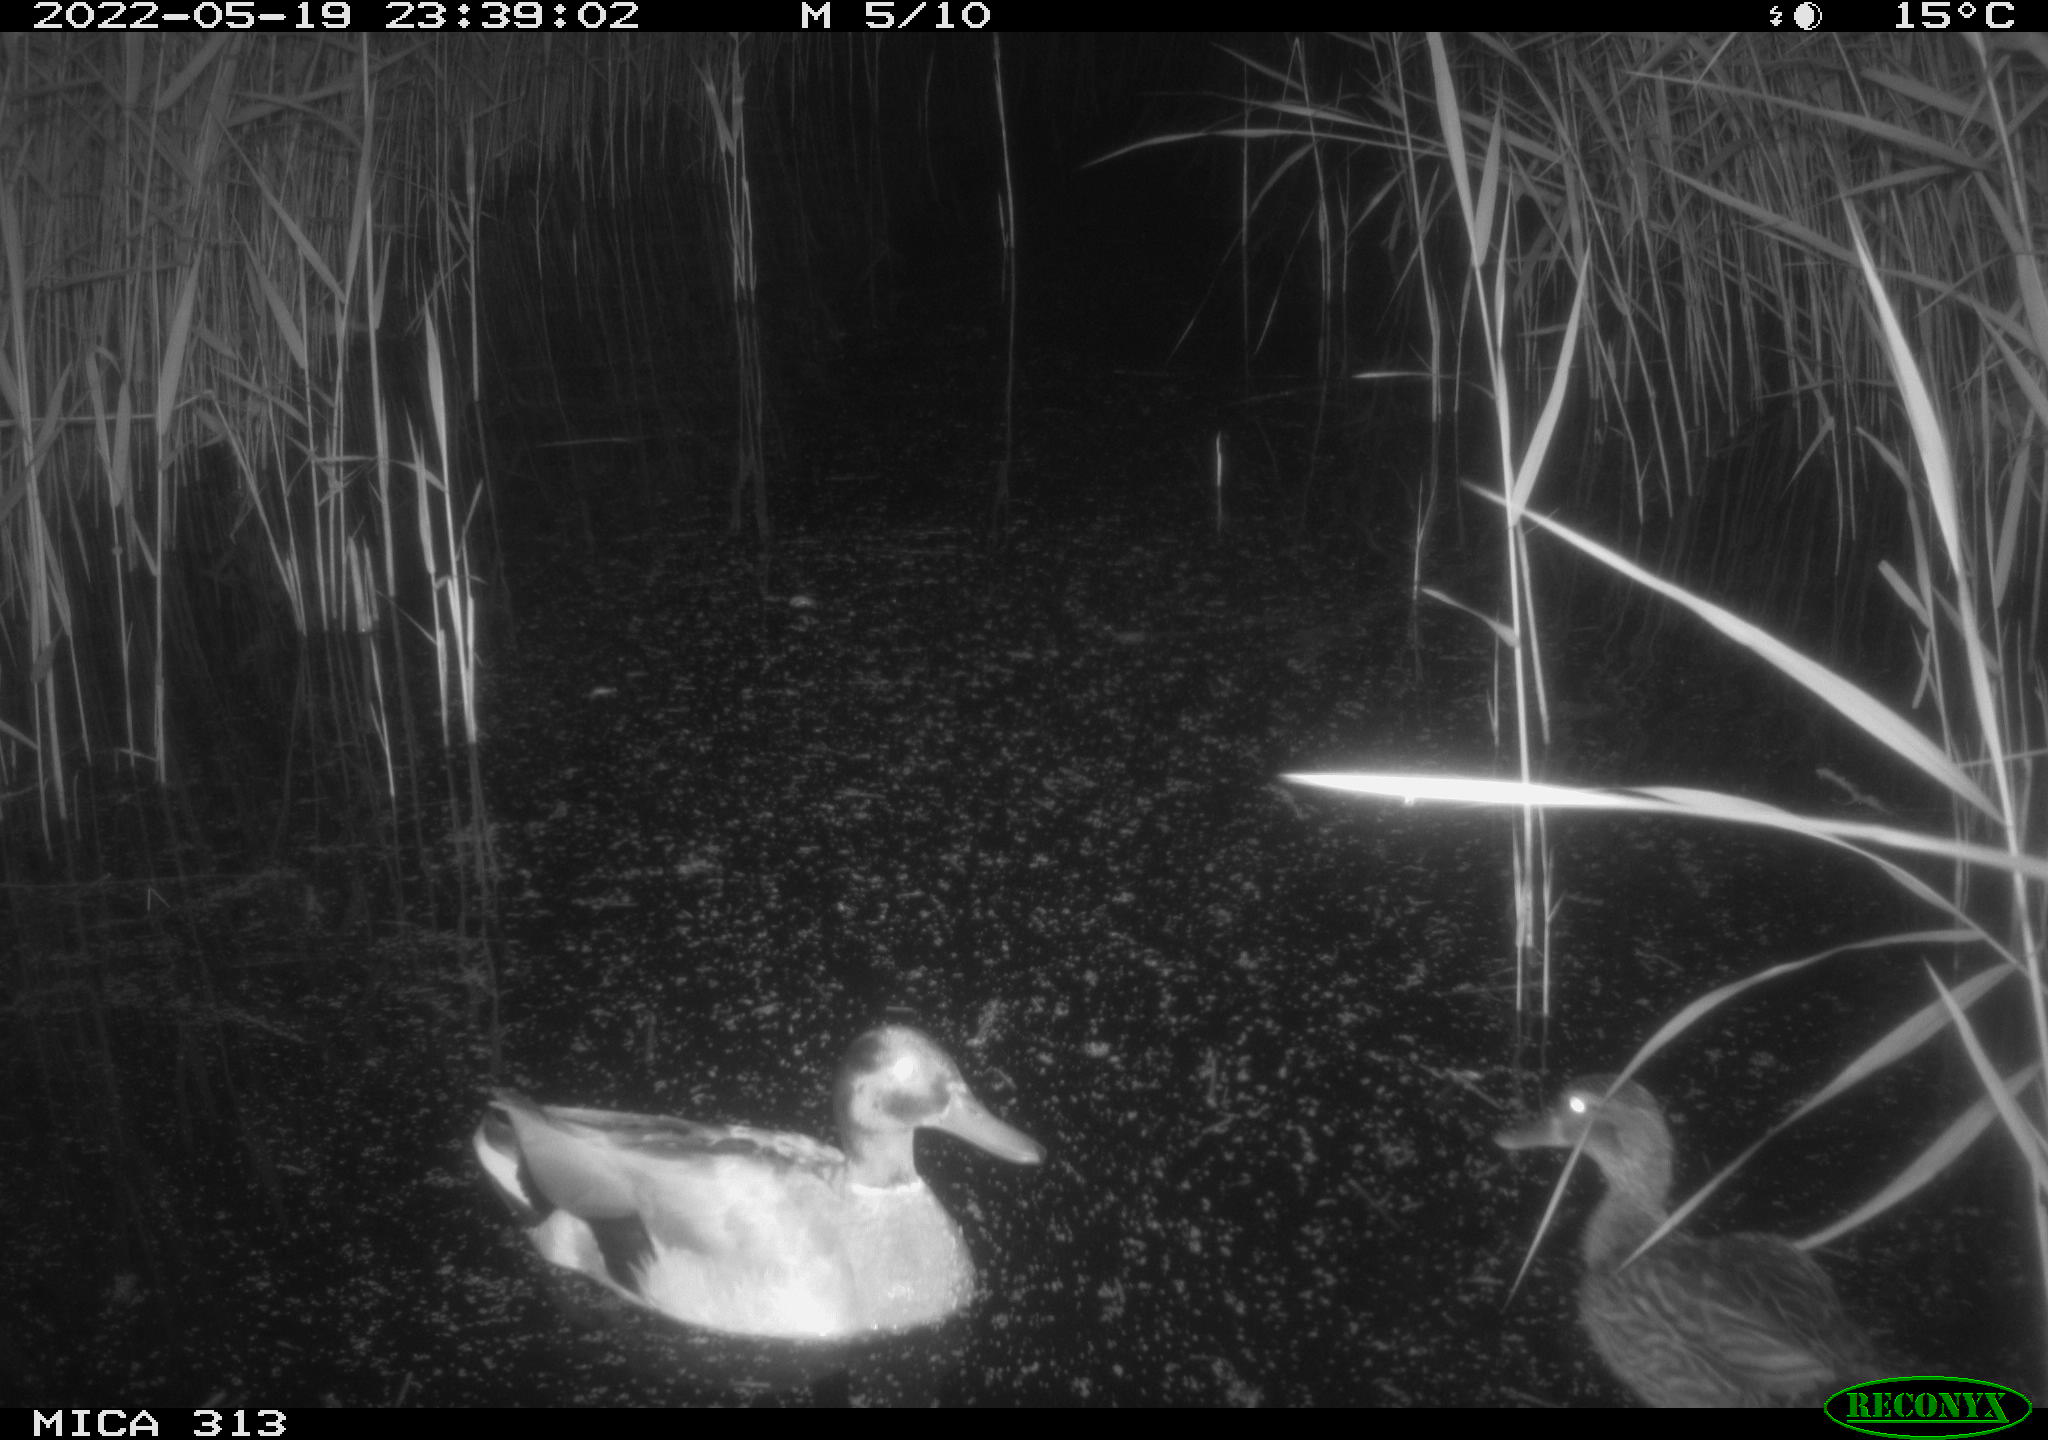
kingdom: Animalia
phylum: Chordata
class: Aves
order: Anseriformes
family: Anatidae
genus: Mareca
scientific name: Mareca strepera
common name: Gadwall
